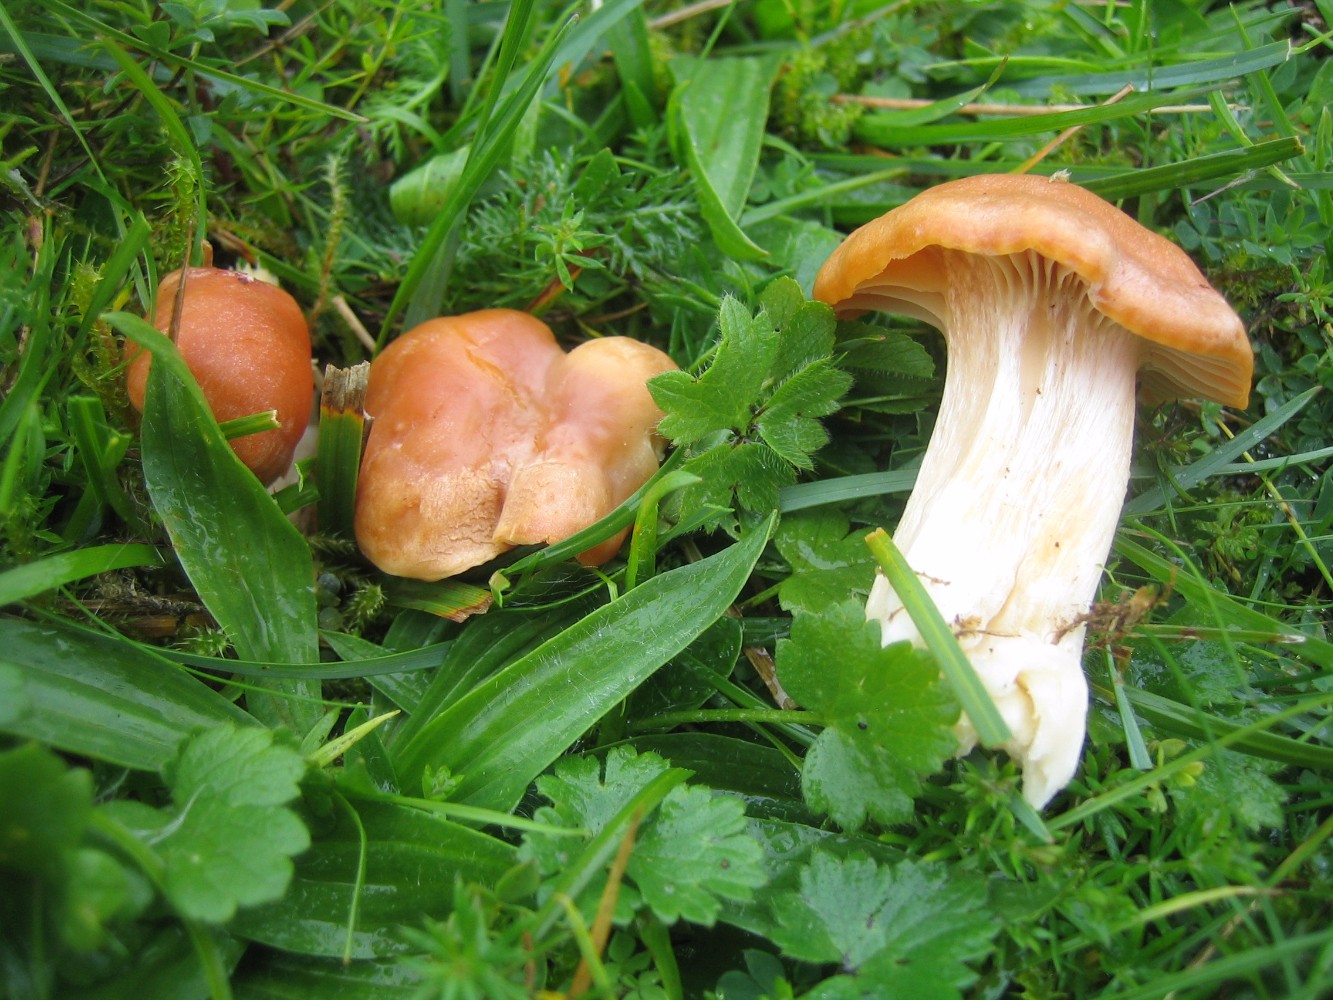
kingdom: Fungi
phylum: Basidiomycota
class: Agaricomycetes
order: Agaricales
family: Hygrophoraceae
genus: Cuphophyllus
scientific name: Cuphophyllus pratensis
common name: eng-vokshat
